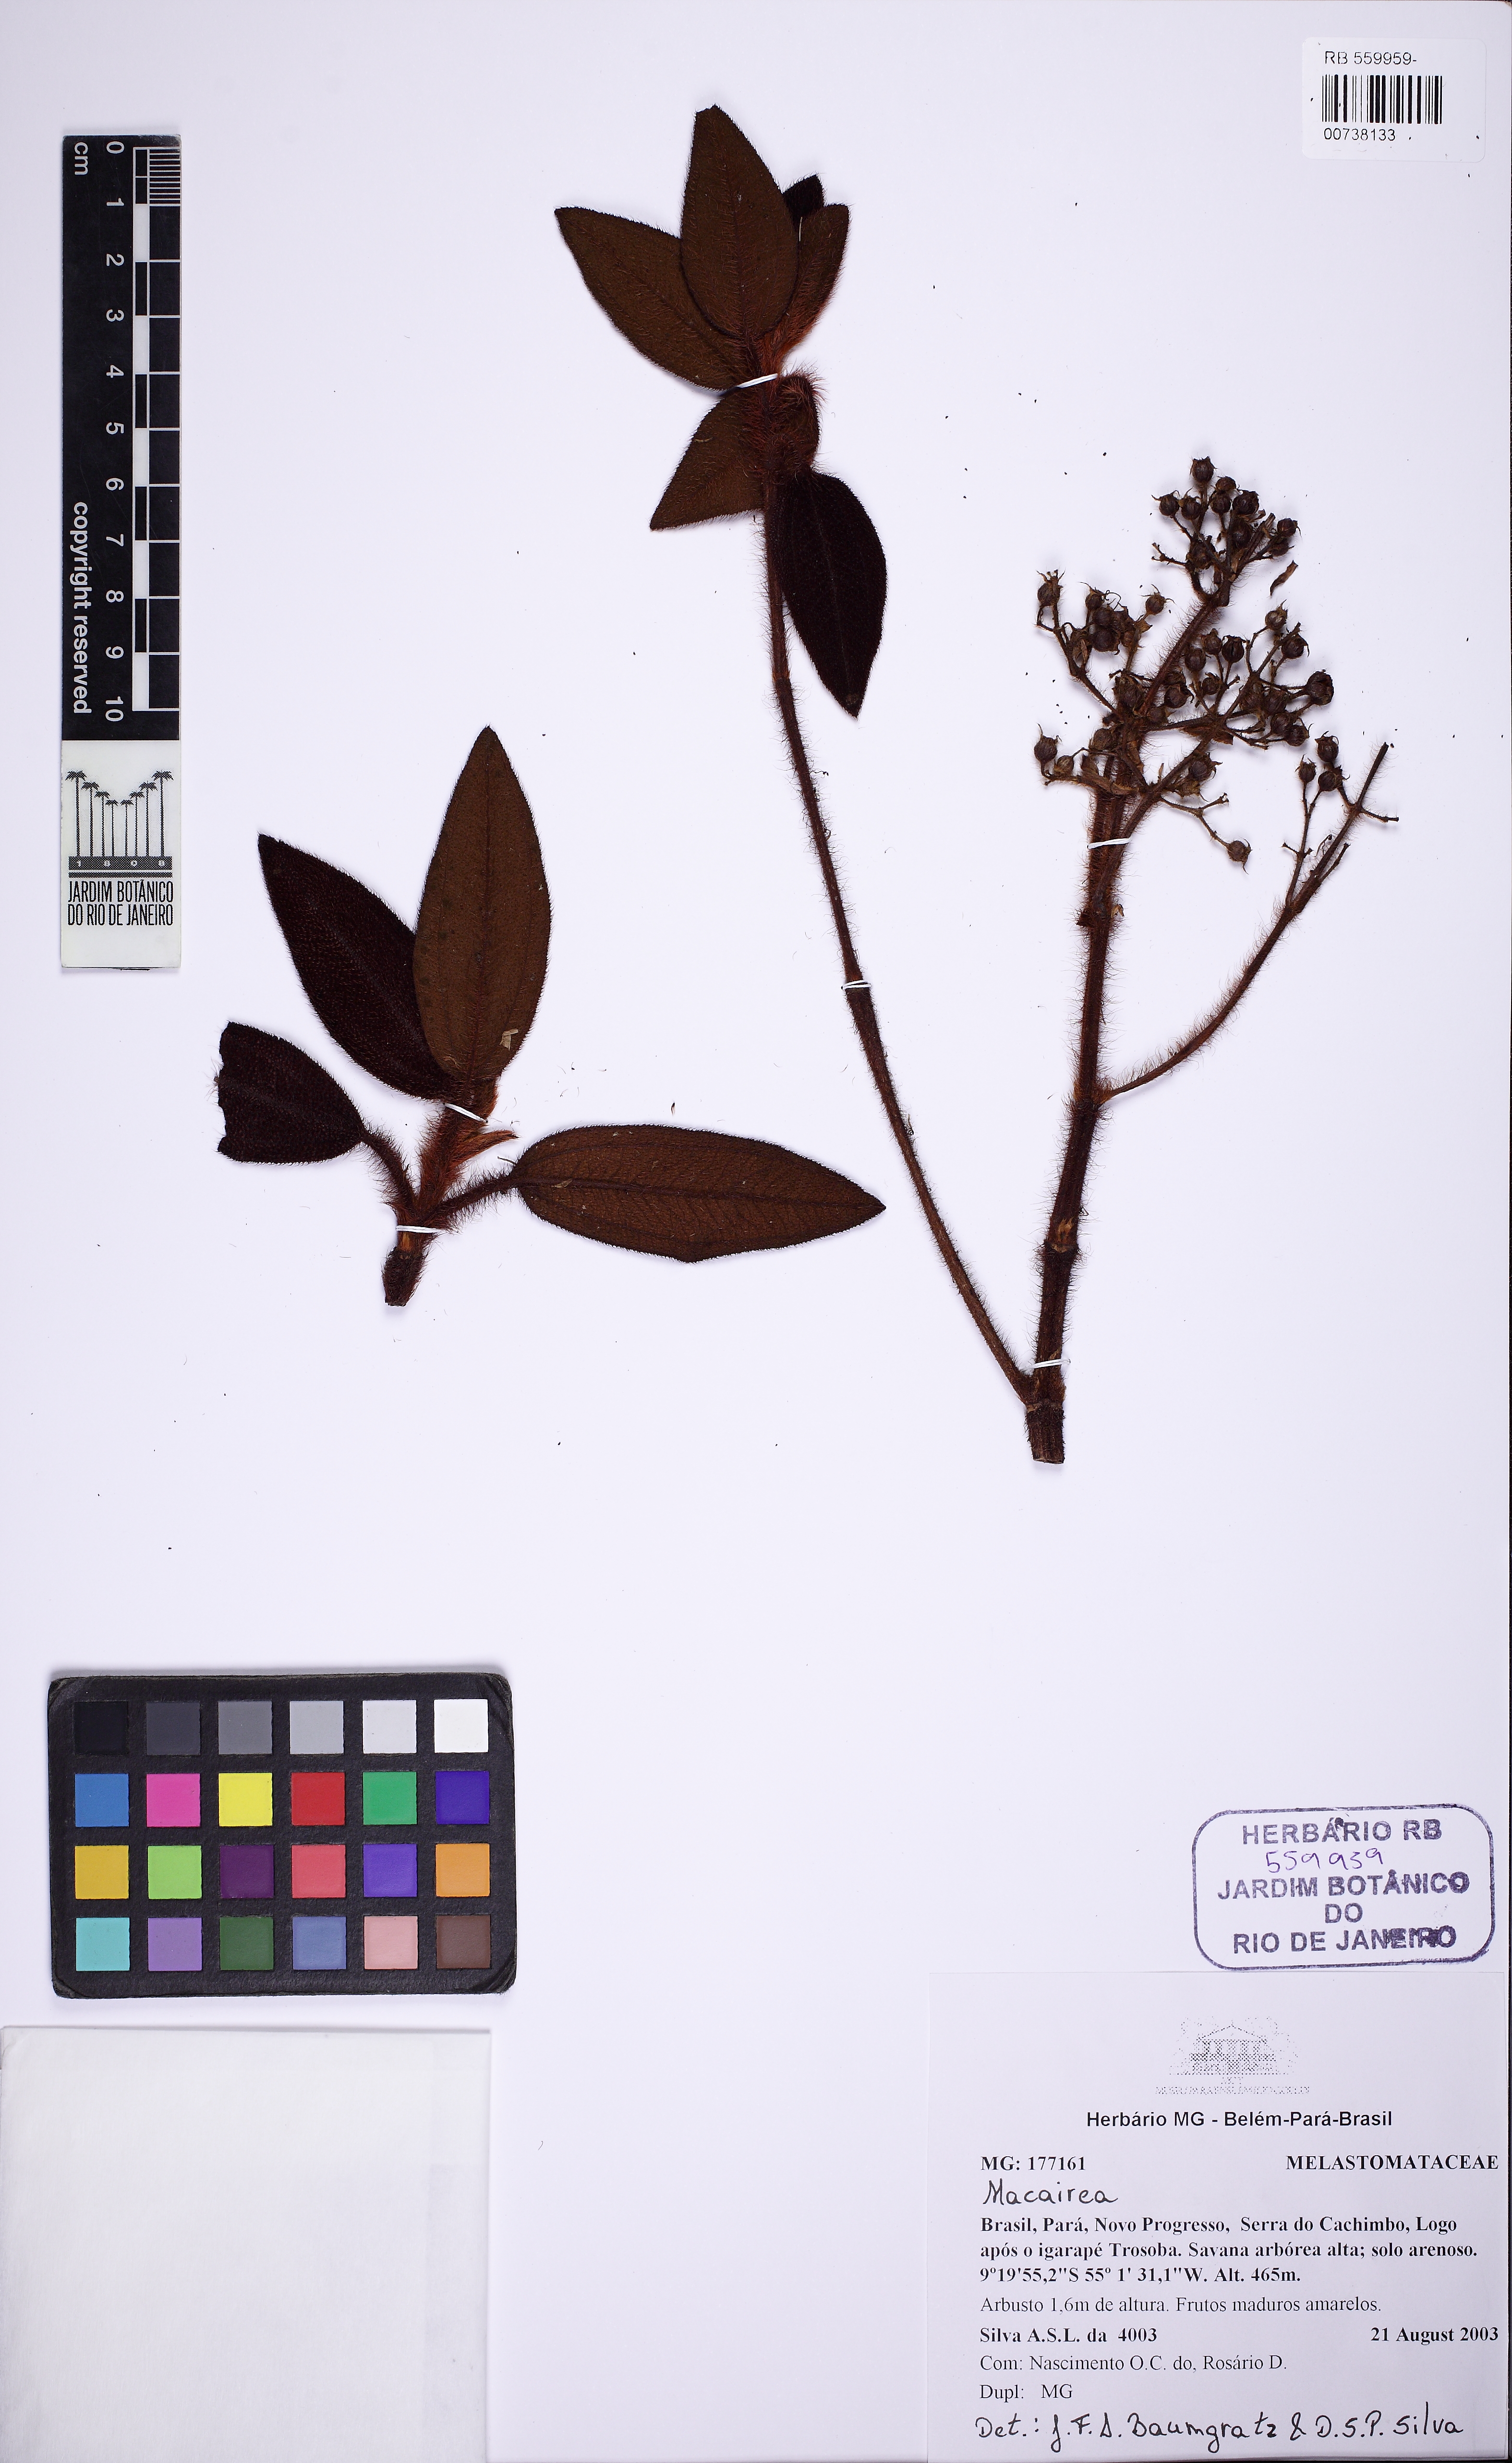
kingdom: Plantae
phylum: Tracheophyta
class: Magnoliopsida
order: Myrtales
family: Melastomataceae
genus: Macairea
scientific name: Macairea pachyphylla
